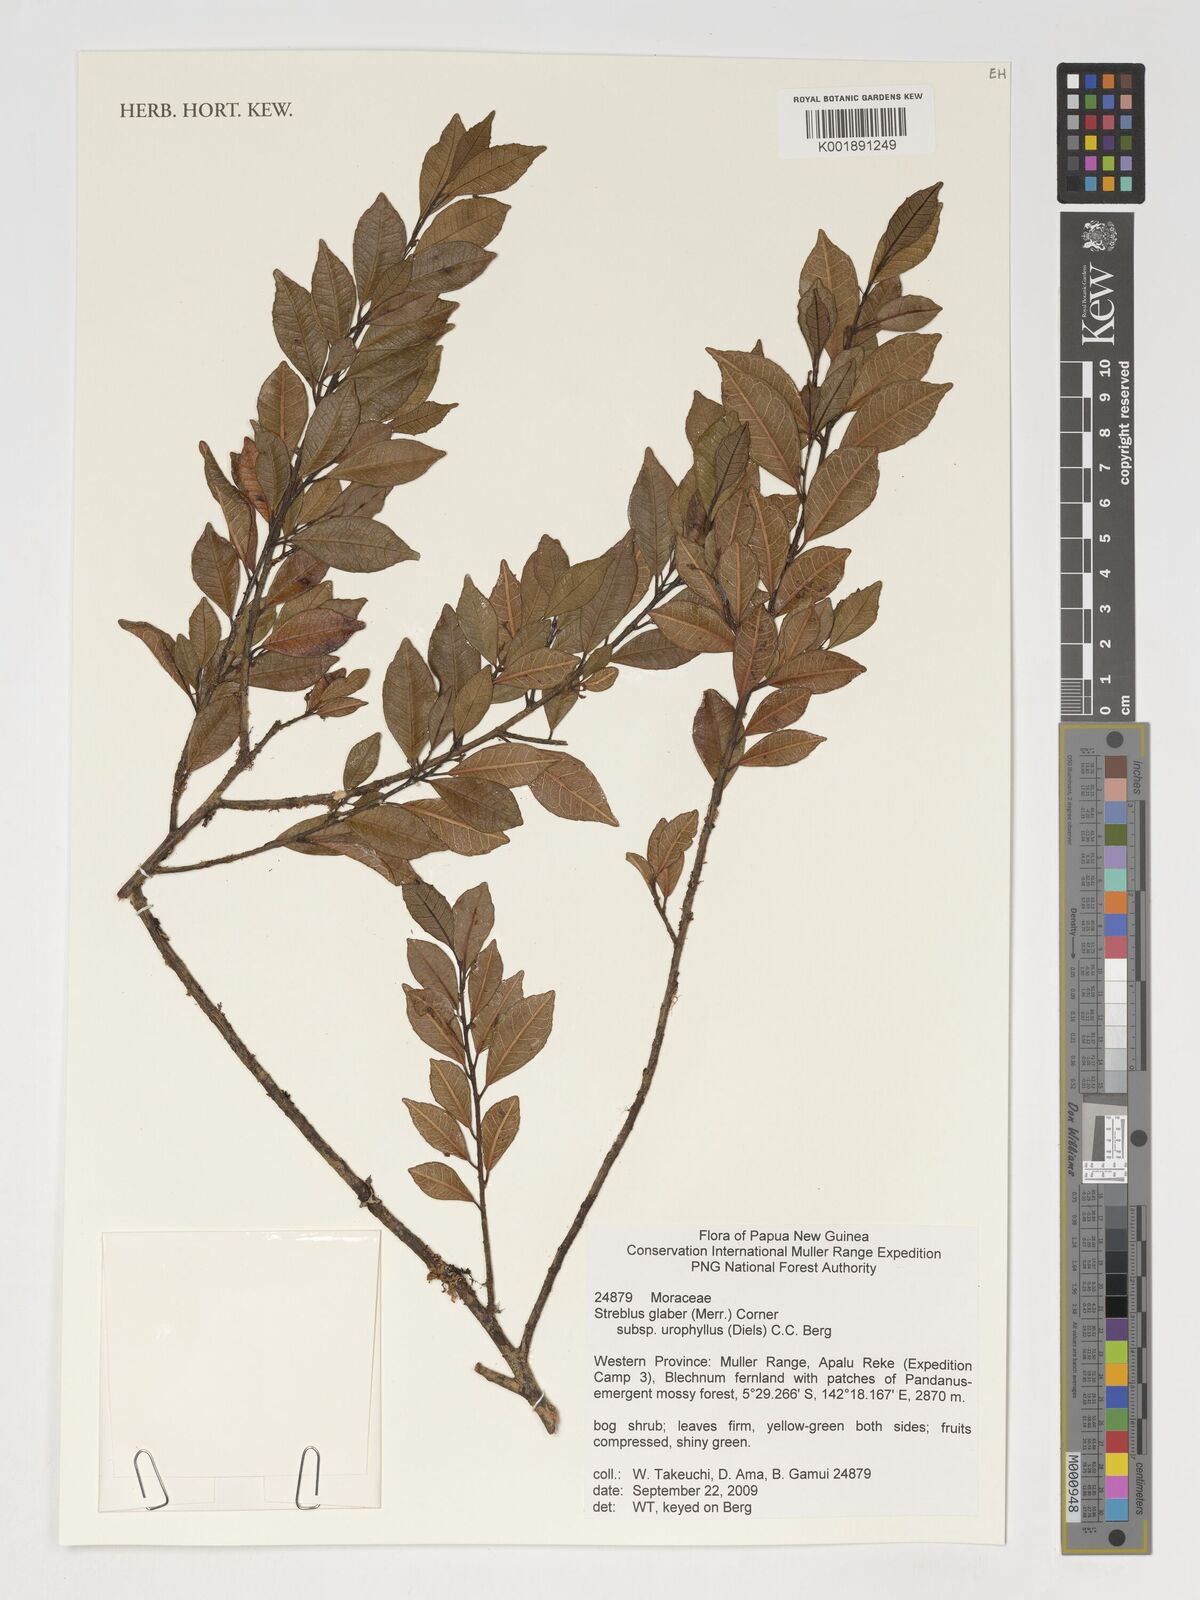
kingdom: Plantae
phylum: Tracheophyta
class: Magnoliopsida
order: Rosales
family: Moraceae
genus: Paratrophis
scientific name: Paratrophis glabra
